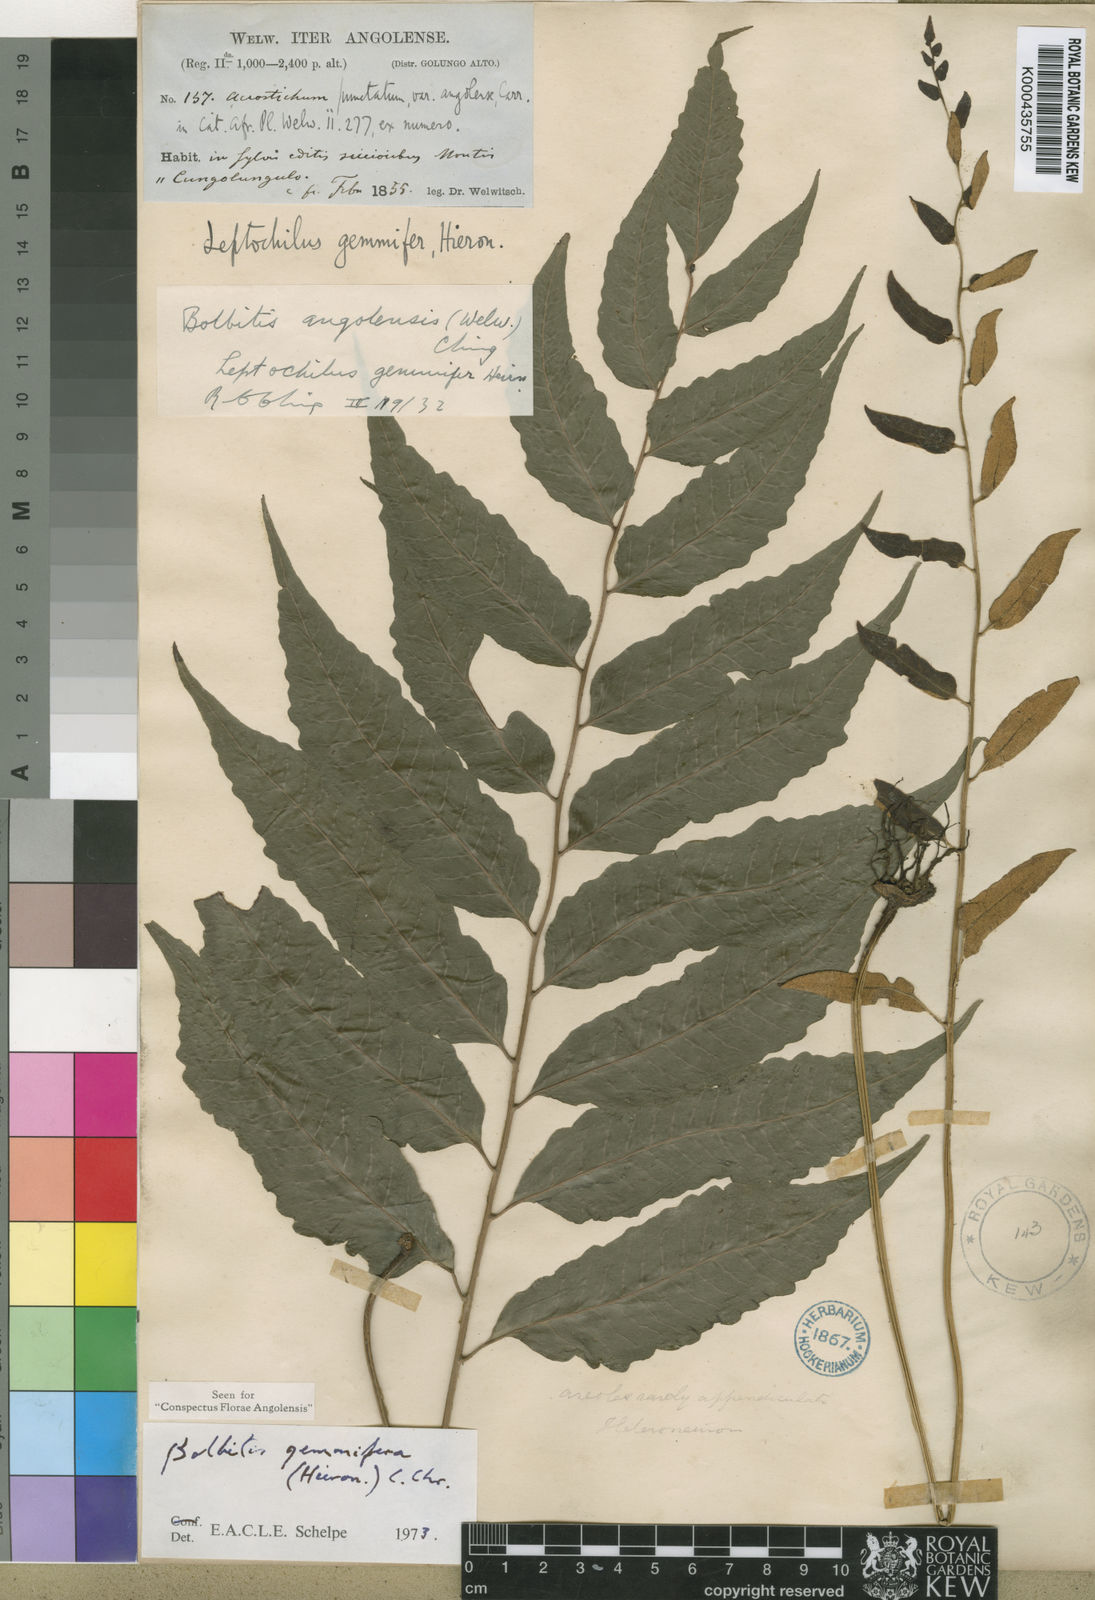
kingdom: Plantae
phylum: Tracheophyta
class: Polypodiopsida
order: Polypodiales
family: Dryopteridaceae
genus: Bolbitis
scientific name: Bolbitis
